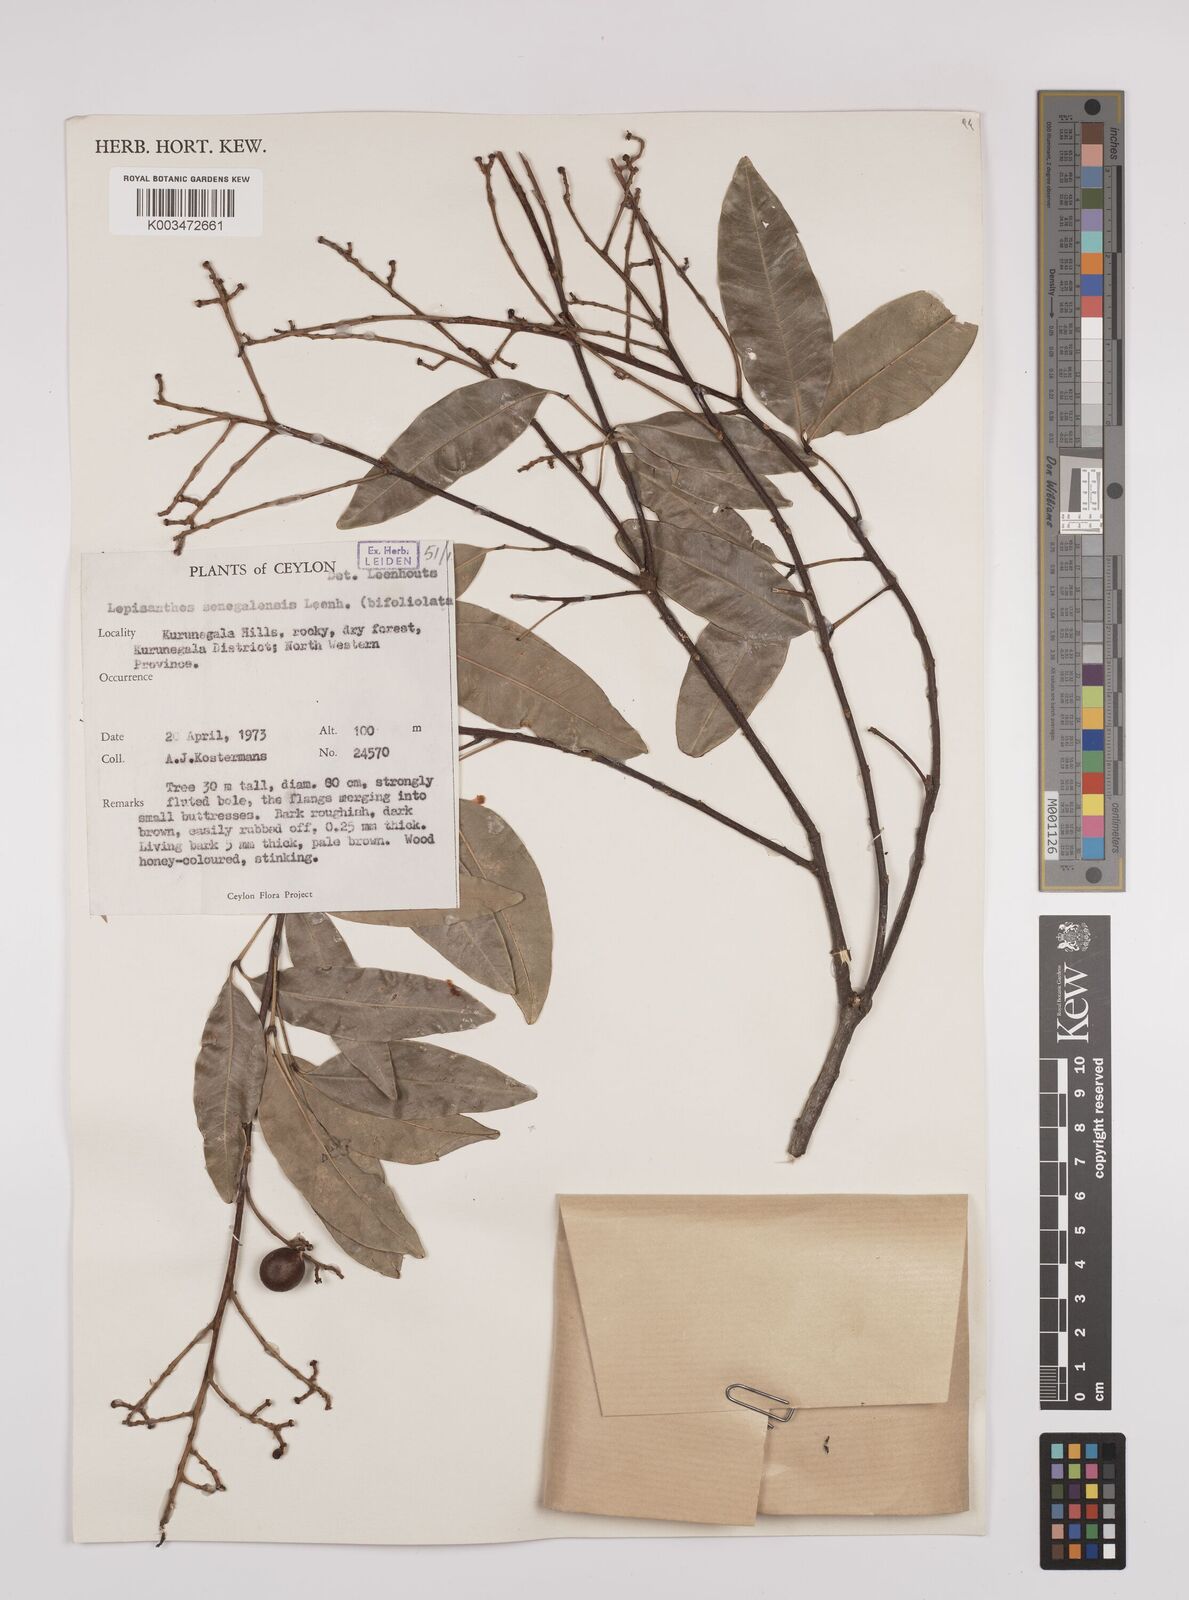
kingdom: Plantae
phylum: Tracheophyta
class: Magnoliopsida
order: Sapindales
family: Sapindaceae
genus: Lepisanthes
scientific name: Lepisanthes senegalensis
